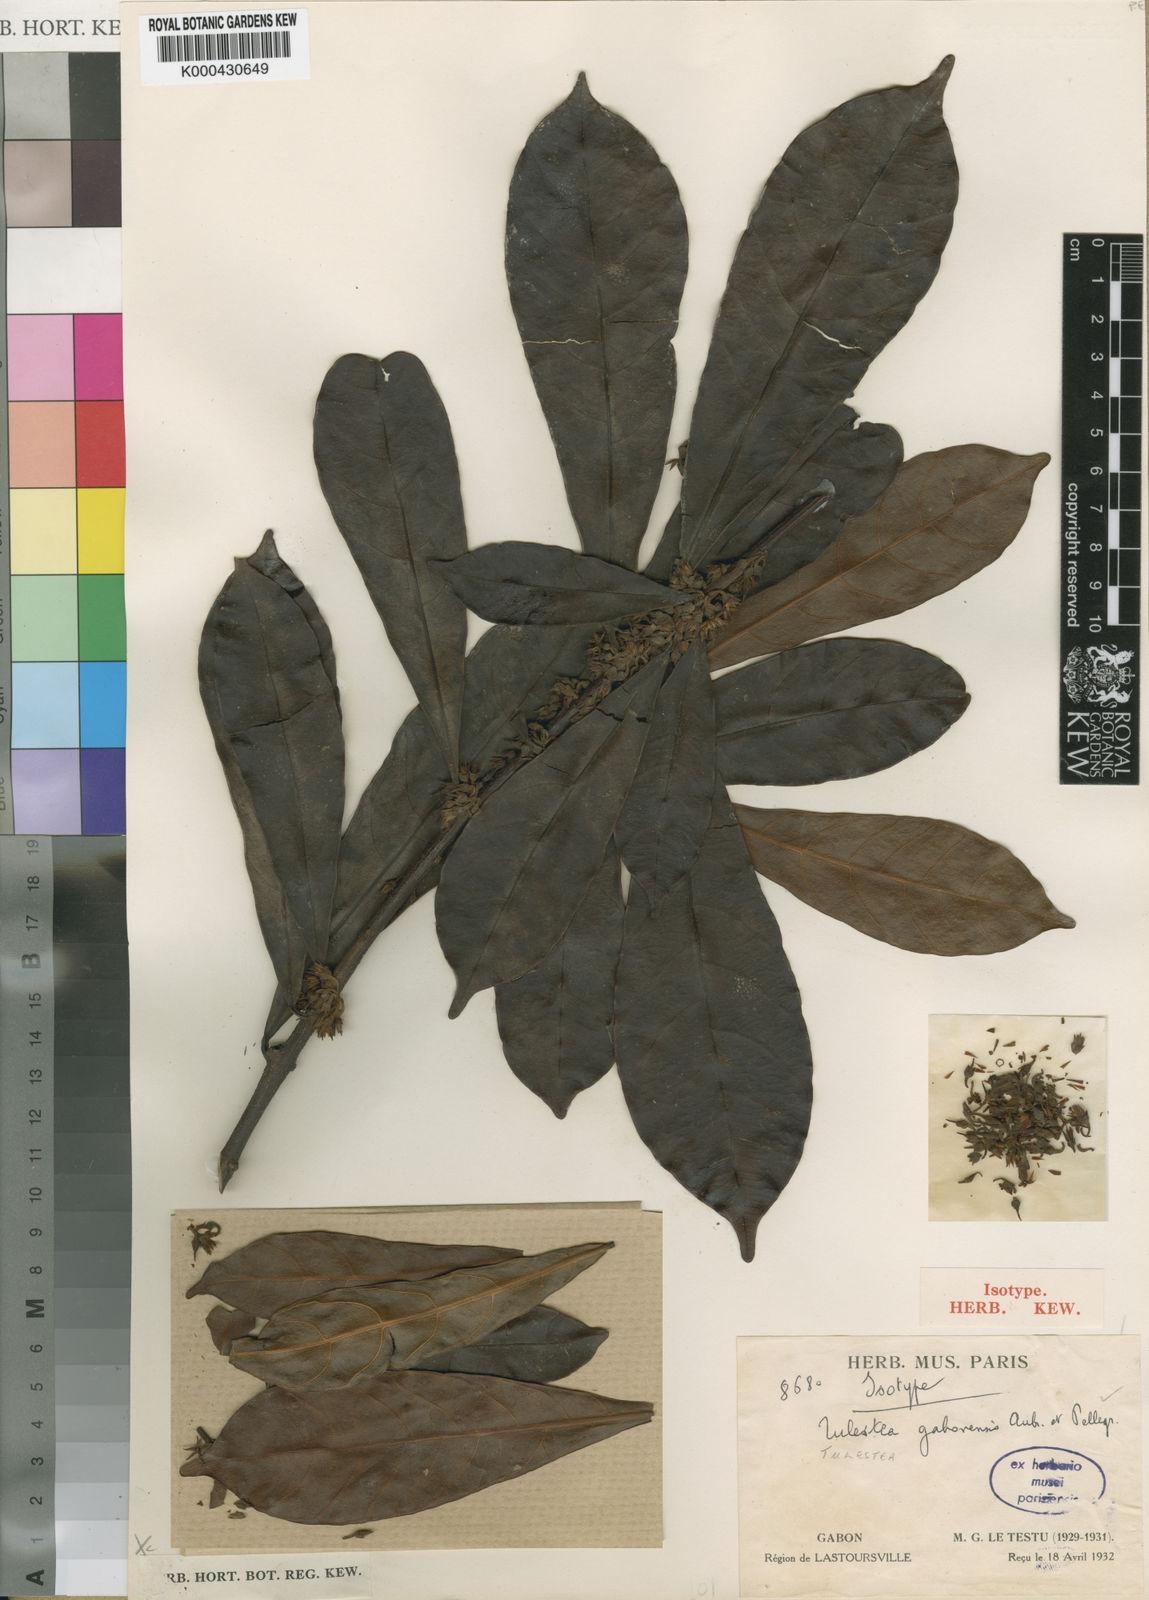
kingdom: Plantae
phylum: Tracheophyta
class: Magnoliopsida
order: Ericales
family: Sapotaceae
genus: Synsepalum
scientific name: Synsepalum
